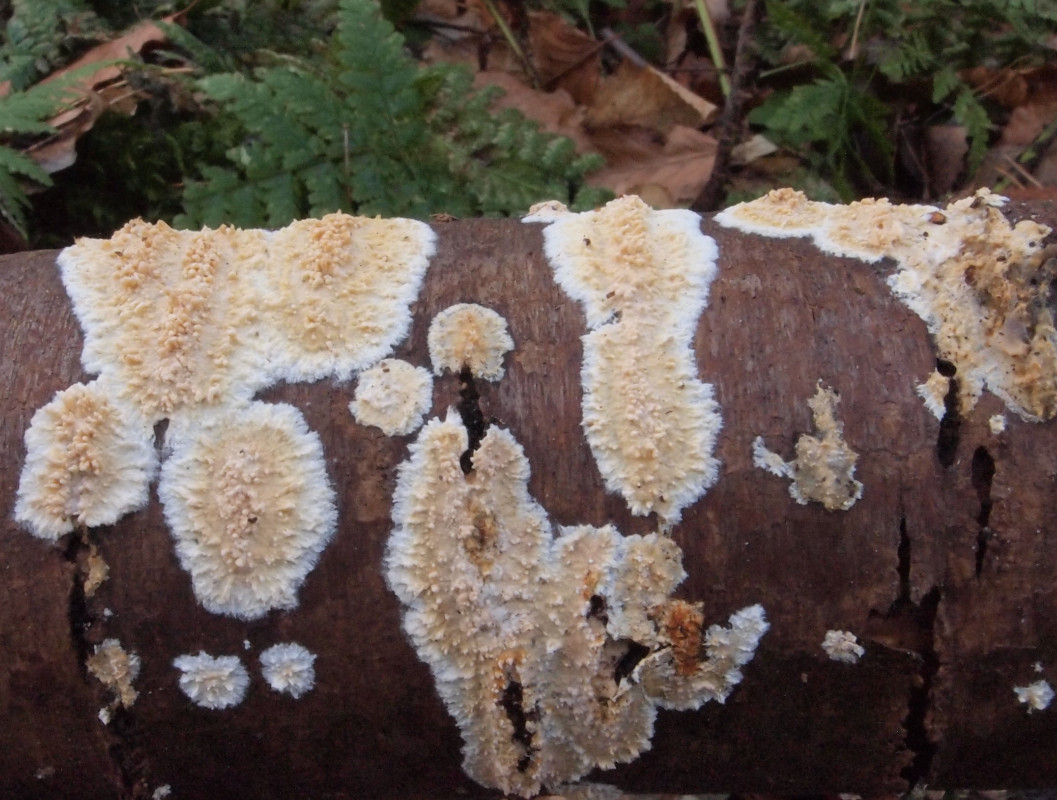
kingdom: Fungi
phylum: Basidiomycota
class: Agaricomycetes
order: Hymenochaetales
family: Schizoporaceae
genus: Xylodon
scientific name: Xylodon radula
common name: grovtandet kalkskind
